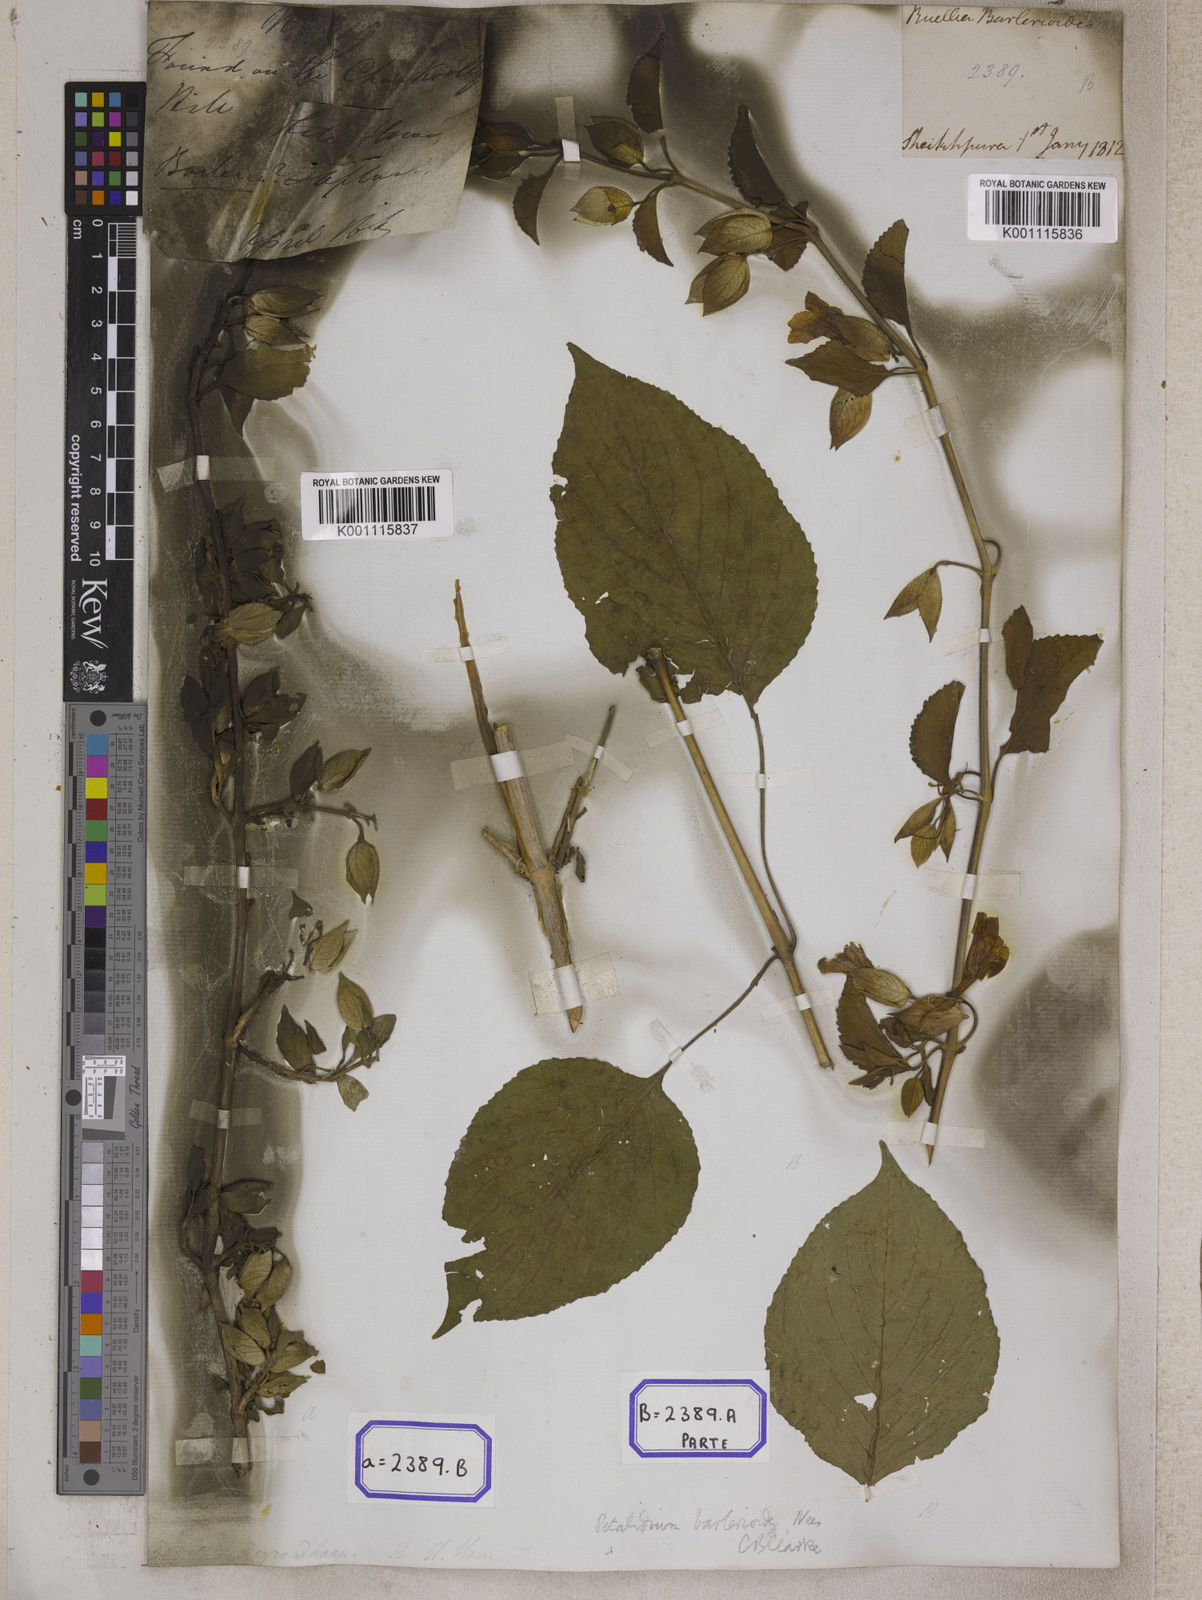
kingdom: Plantae
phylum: Tracheophyta
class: Magnoliopsida
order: Lamiales
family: Acanthaceae
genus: Eranthemum
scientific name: Eranthemum suffruticosum
